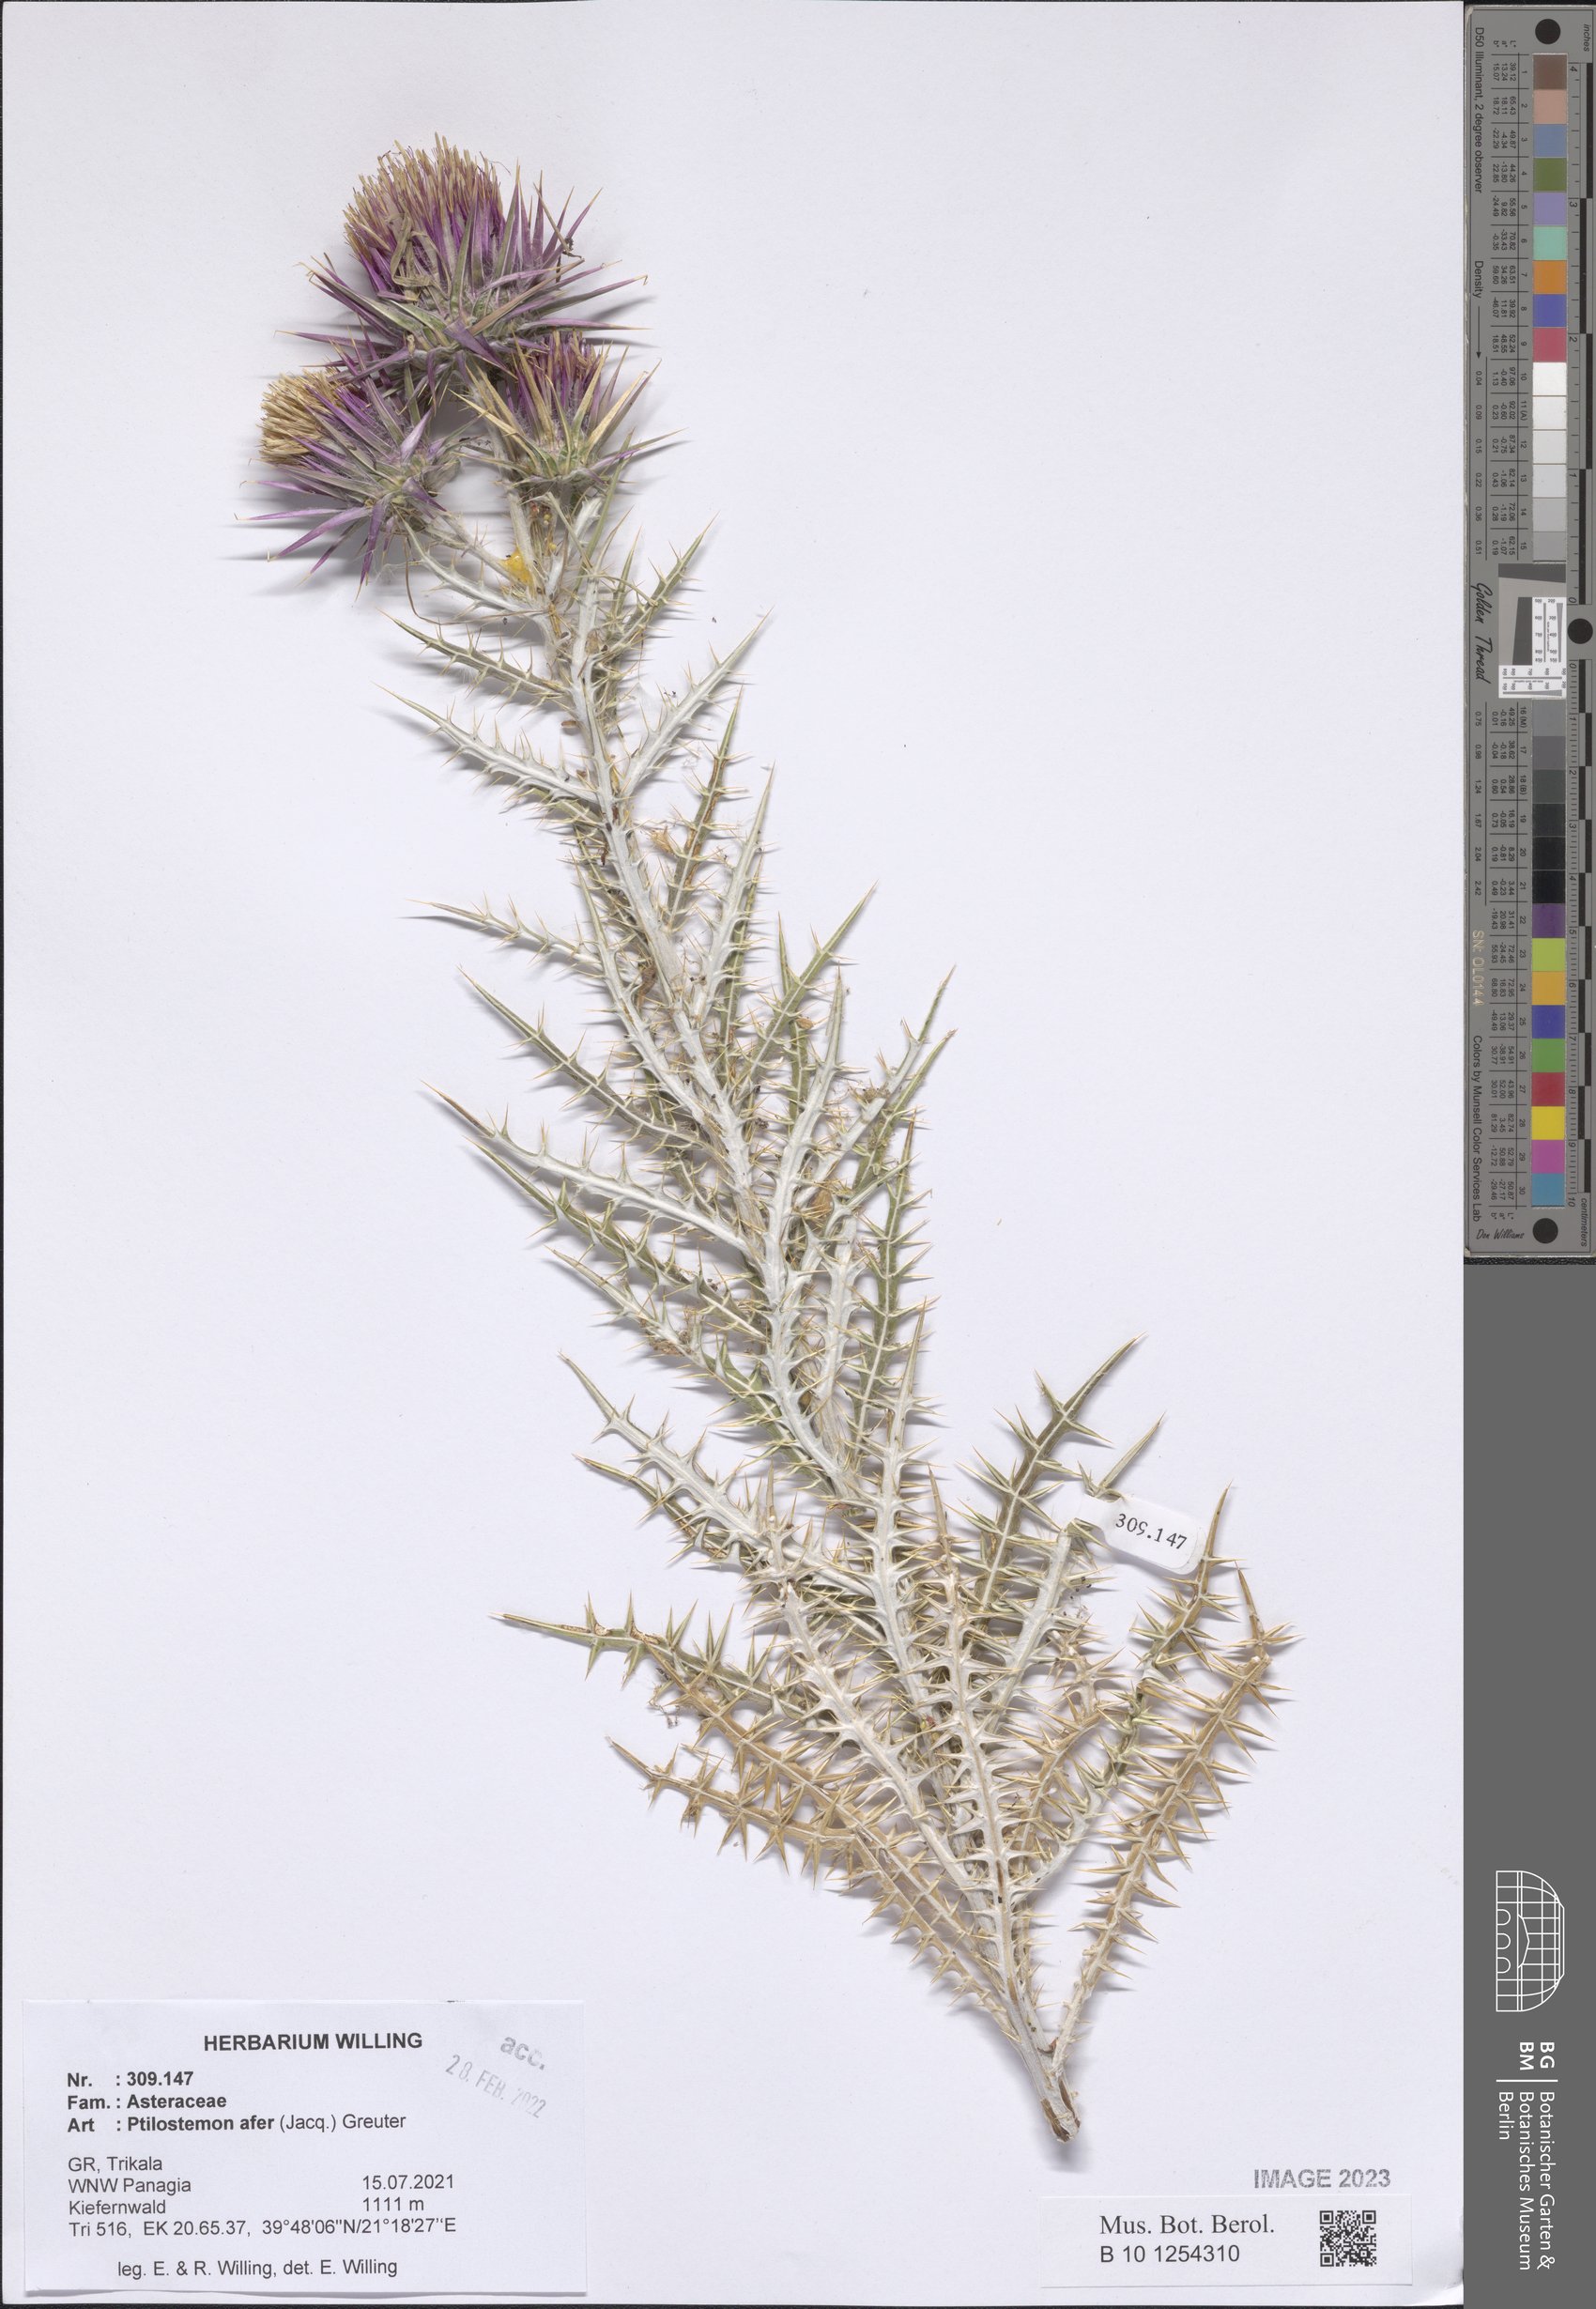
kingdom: Plantae
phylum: Tracheophyta
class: Magnoliopsida
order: Asterales
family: Asteraceae
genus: Ptilostemon
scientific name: Ptilostemon afer
